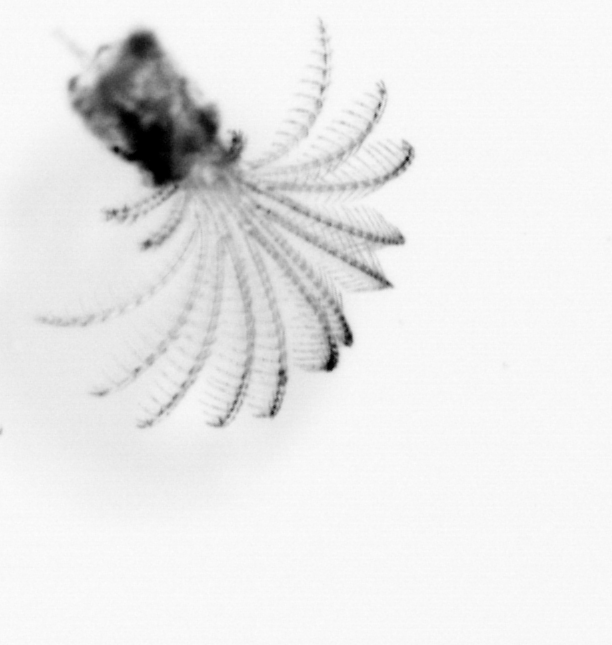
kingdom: Animalia
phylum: Arthropoda
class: Maxillopoda
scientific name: Maxillopoda
